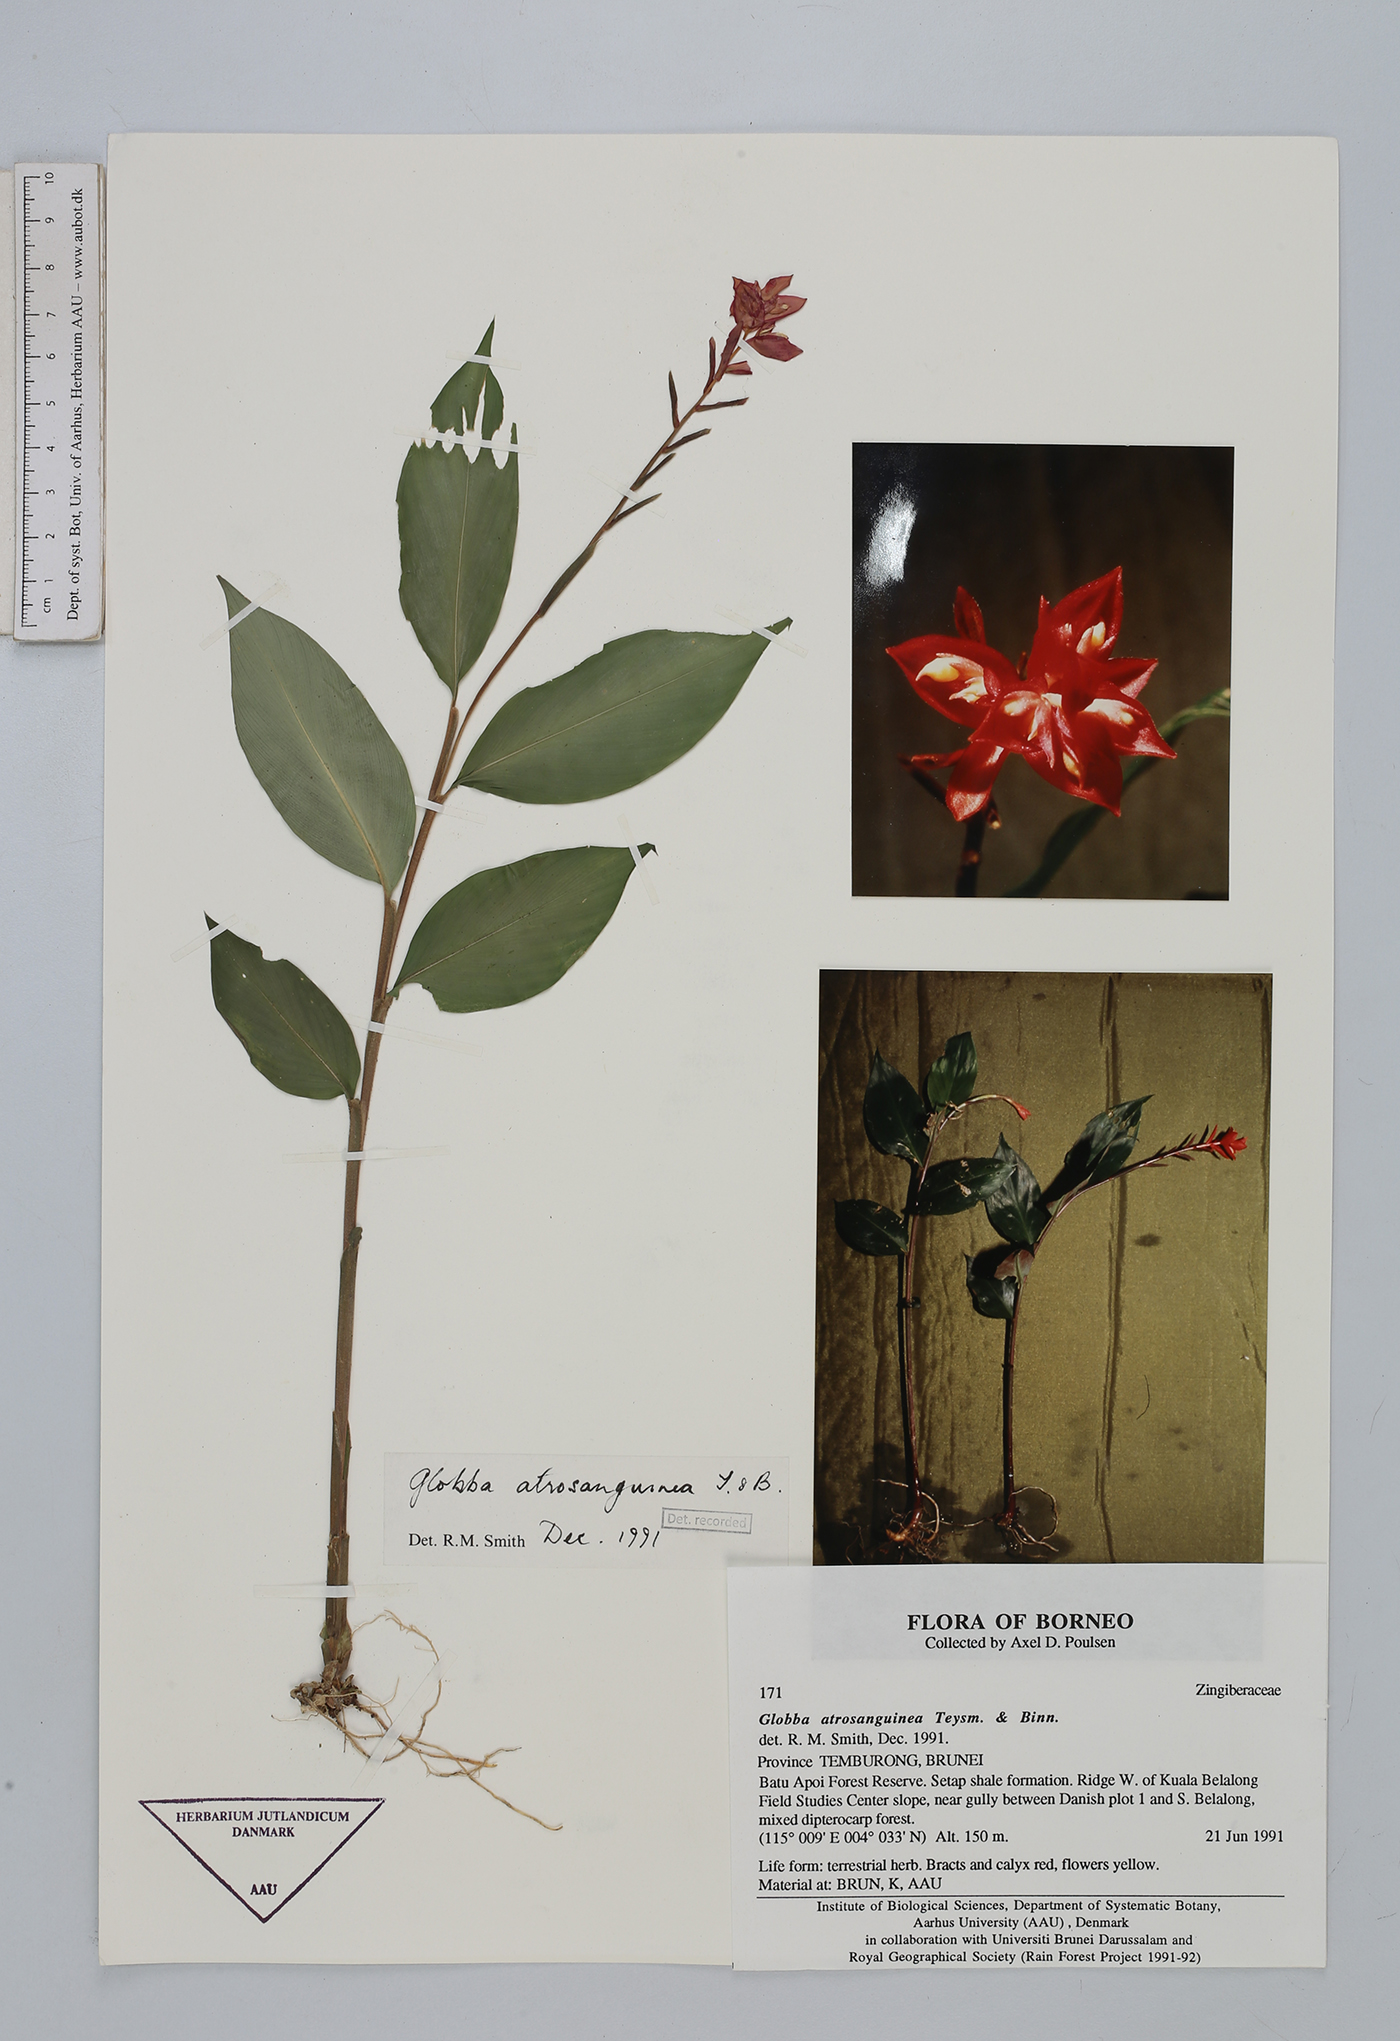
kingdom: Plantae
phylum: Tracheophyta
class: Liliopsida
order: Zingiberales
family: Zingiberaceae
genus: Globba
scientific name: Globba atrosanguinea
